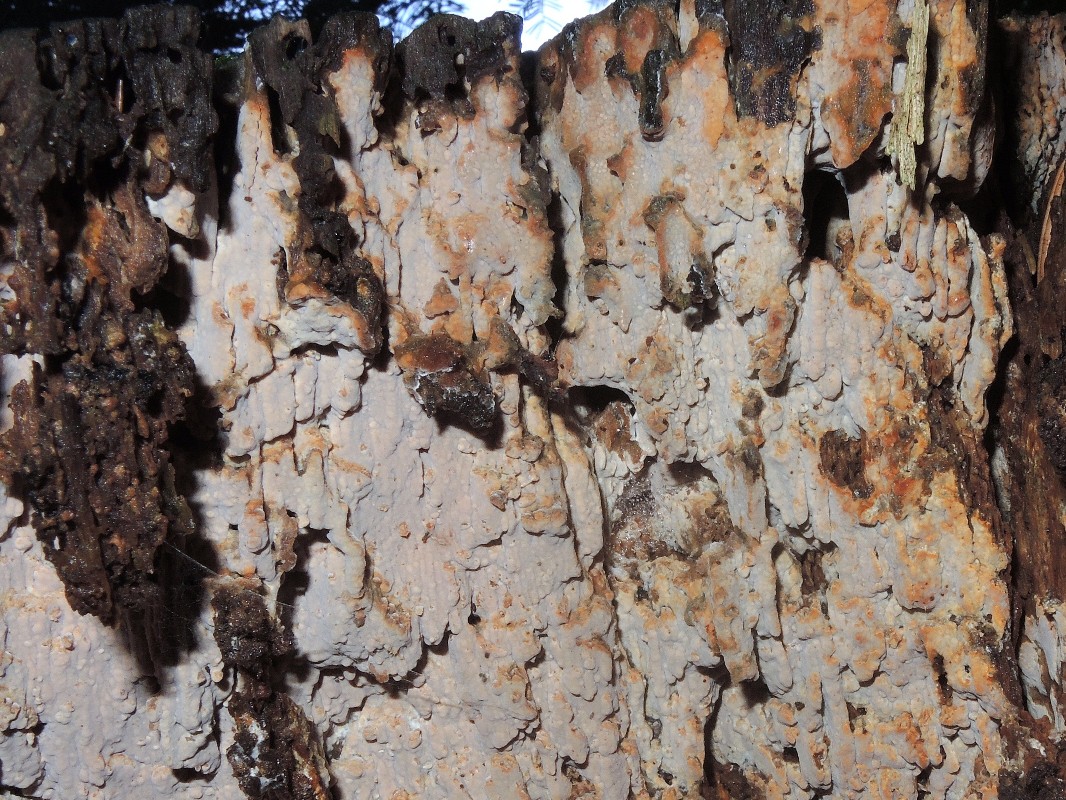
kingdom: Fungi
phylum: Basidiomycota
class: Agaricomycetes
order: Russulales
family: Peniophoraceae
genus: Gloiothele
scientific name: Gloiothele lactescens
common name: bitter olieskind
